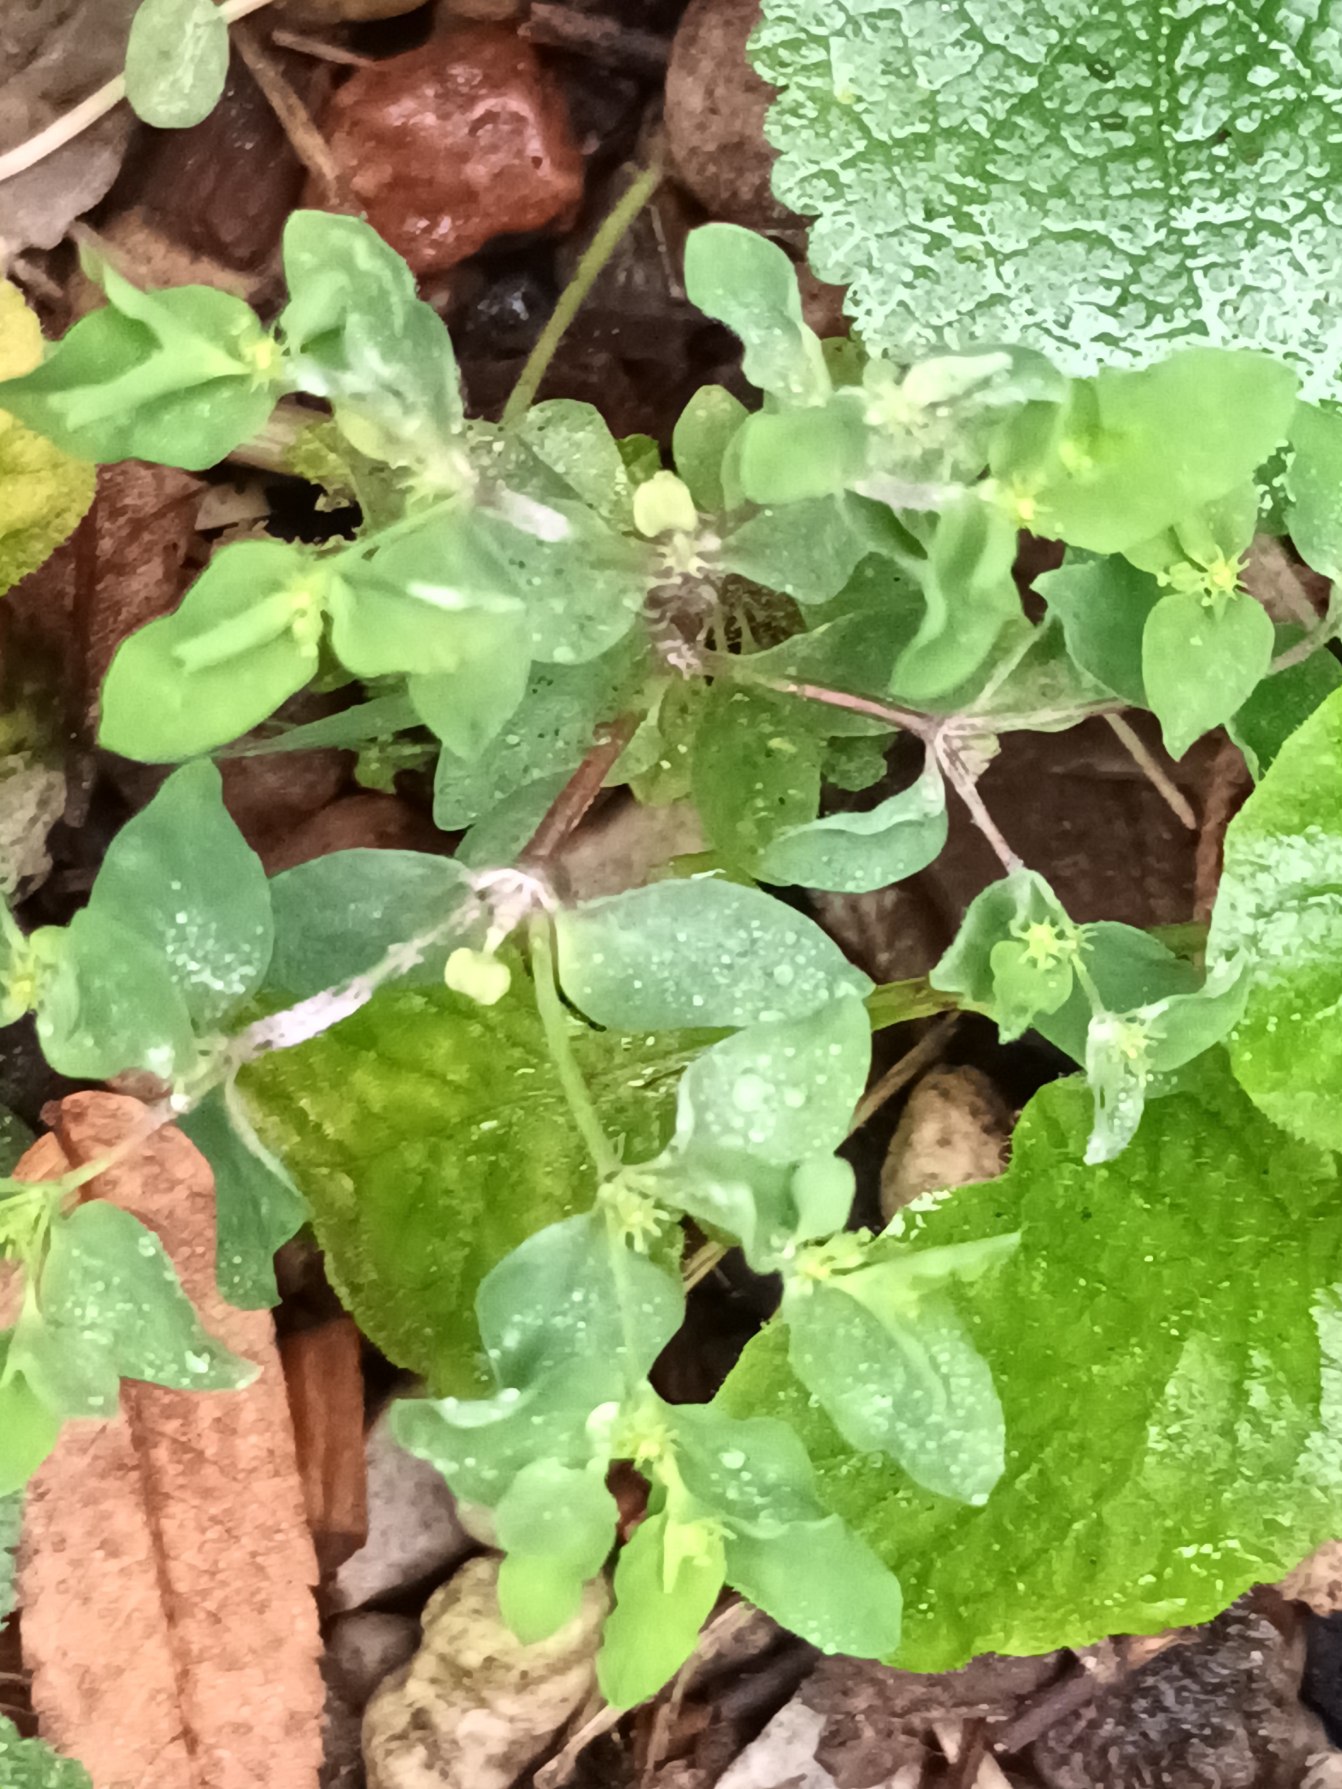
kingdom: Plantae
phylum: Tracheophyta
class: Magnoliopsida
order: Malpighiales
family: Euphorbiaceae
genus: Euphorbia
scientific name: Euphorbia peplus
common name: Gaffel-vortemælk
